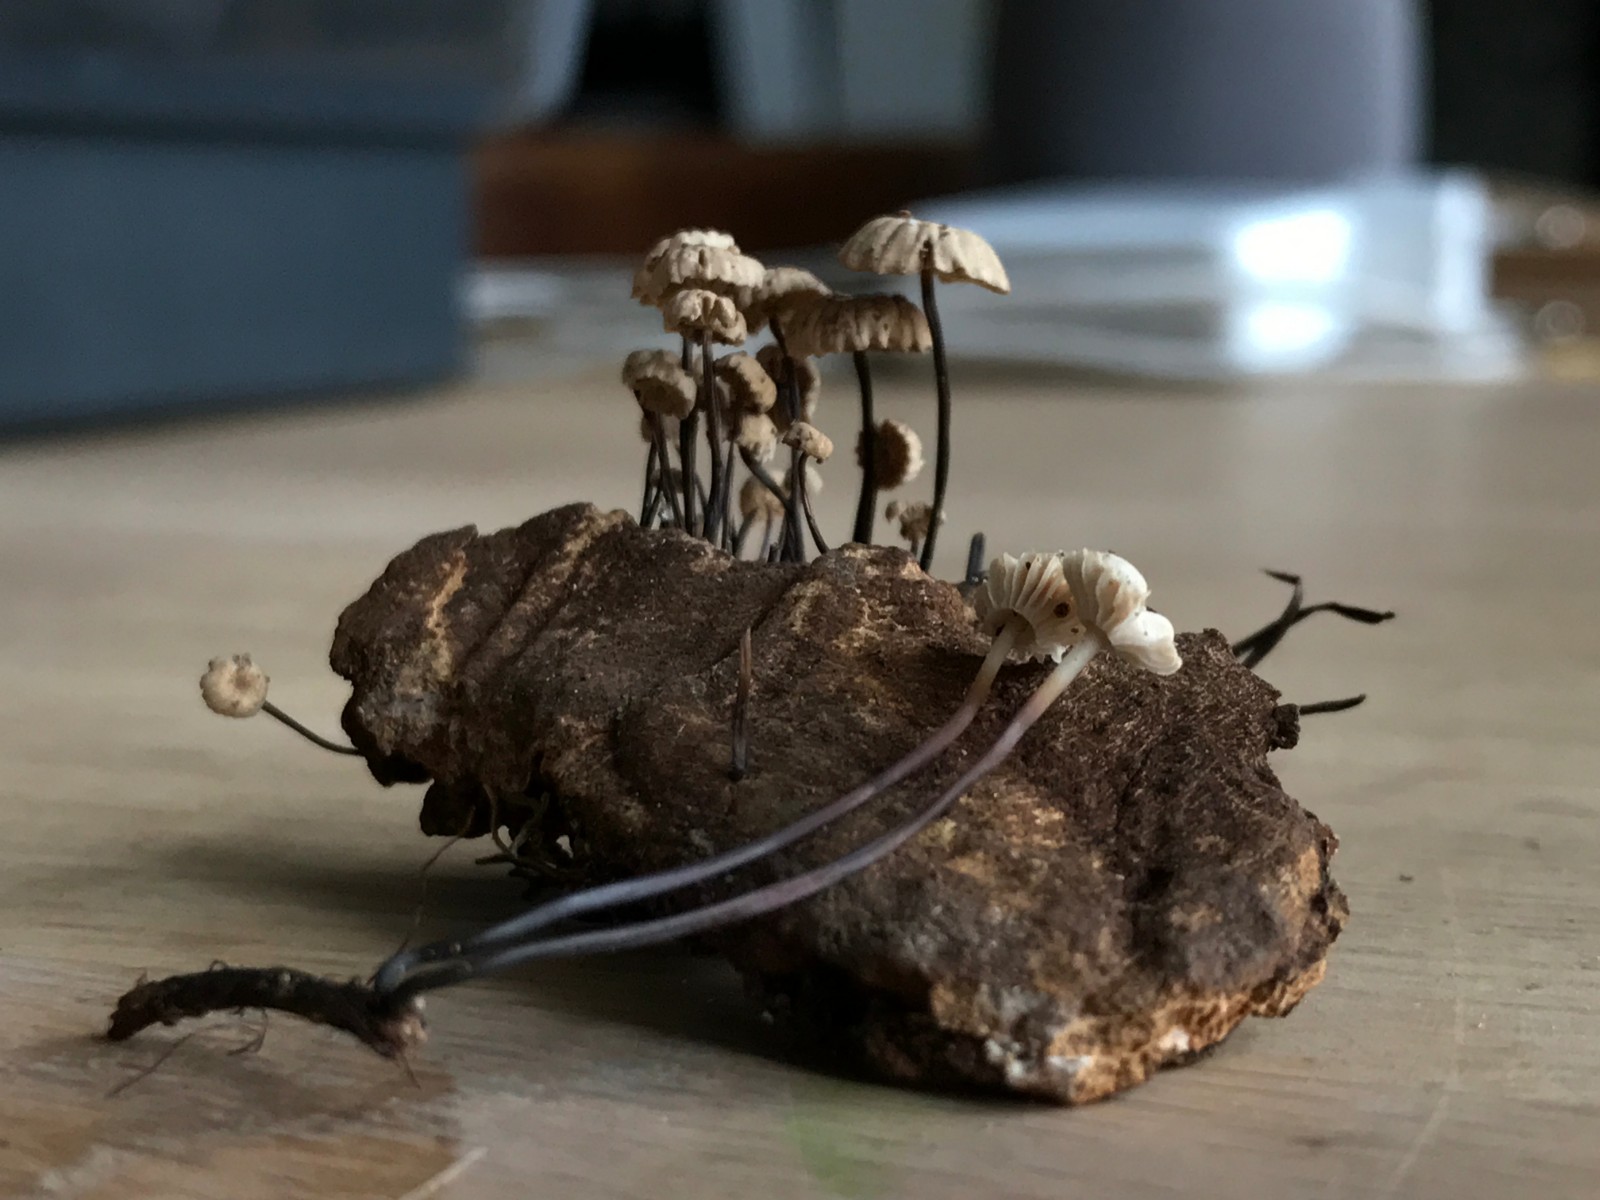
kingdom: Fungi
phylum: Basidiomycota
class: Agaricomycetes
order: Agaricales
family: Marasmiaceae
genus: Marasmius
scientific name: Marasmius rotula
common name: hjul-bruskhat
